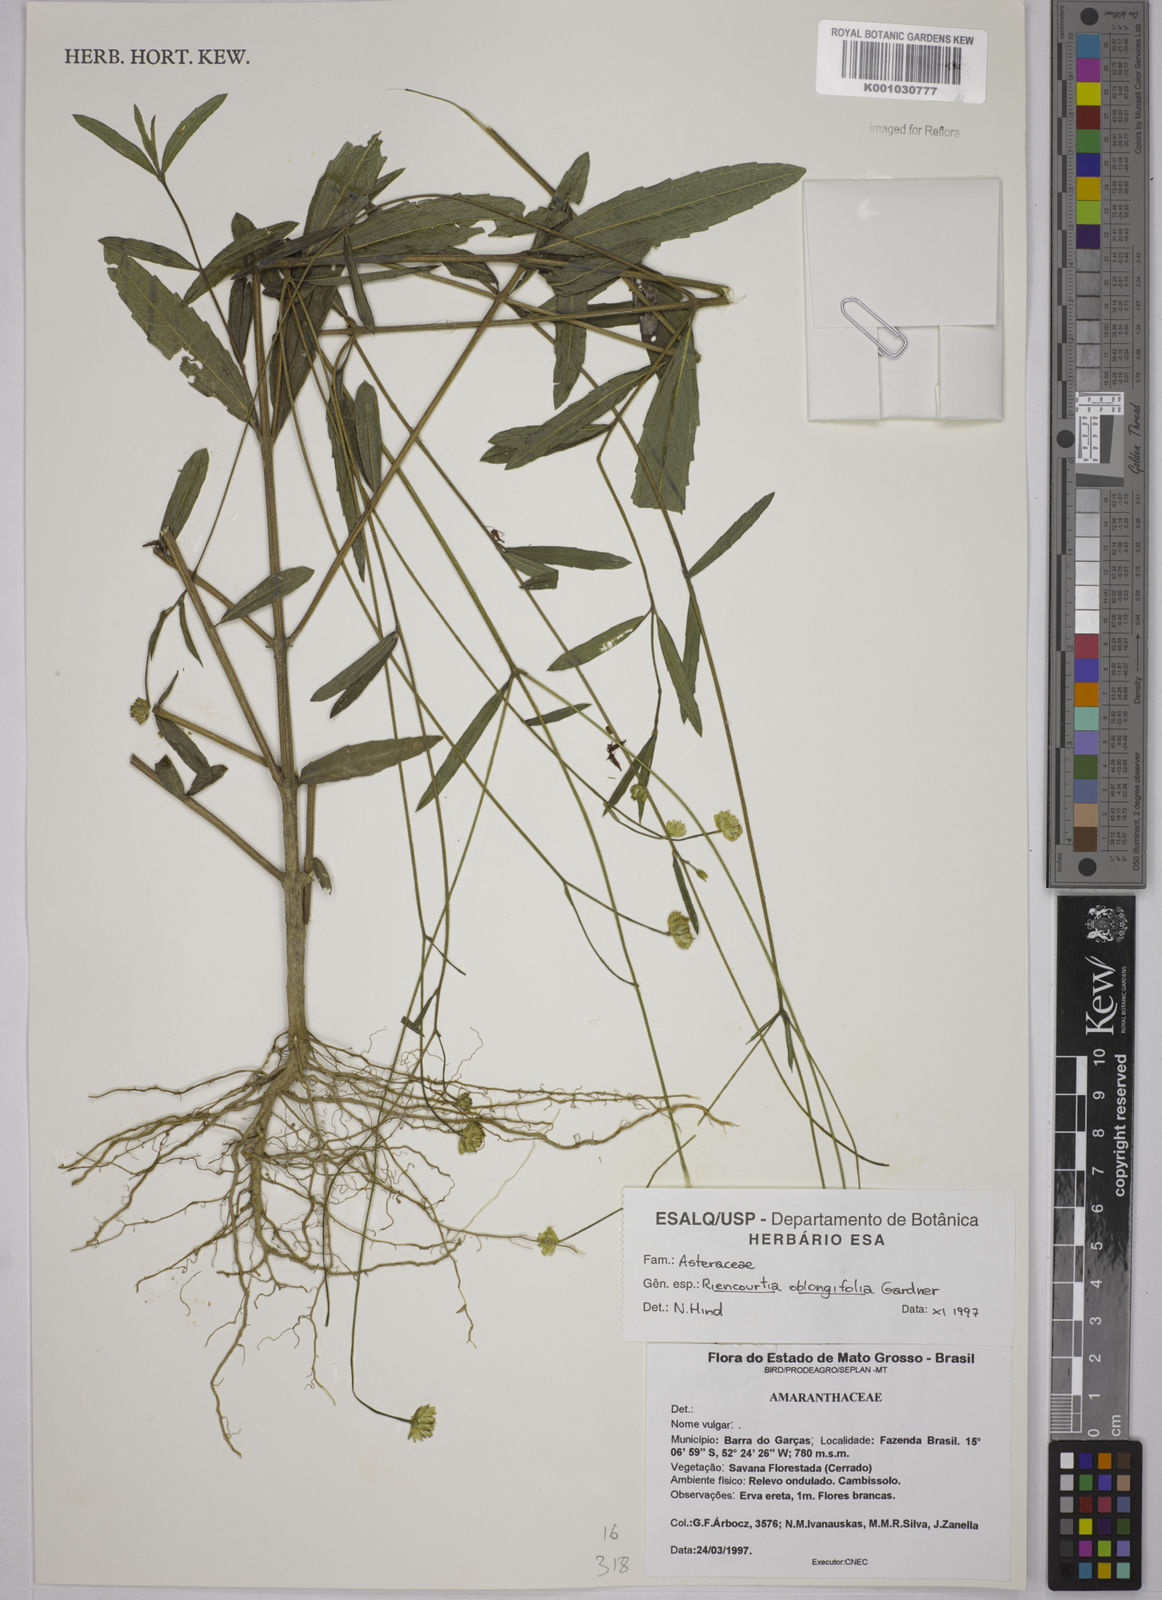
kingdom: Plantae
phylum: Tracheophyta
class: Magnoliopsida
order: Asterales
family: Asteraceae
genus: Riencourtia
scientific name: Riencourtia oblongifolia
